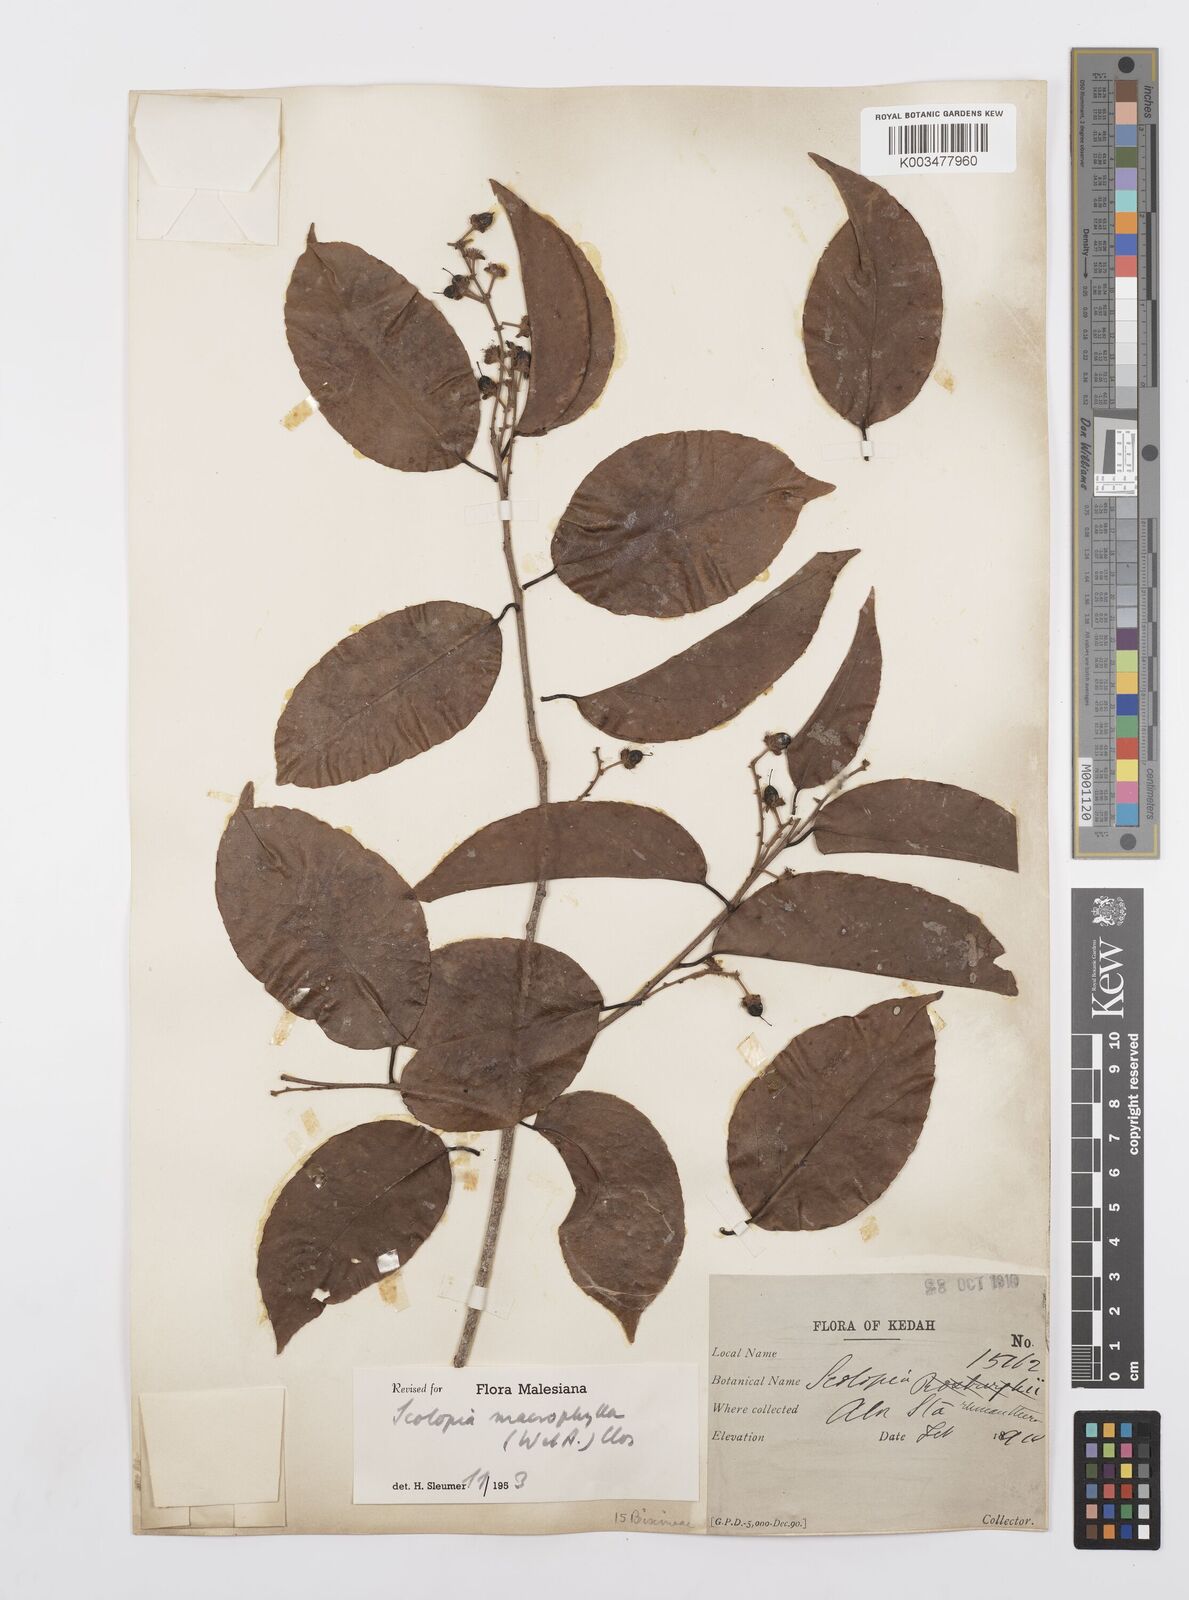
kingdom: Plantae
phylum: Tracheophyta
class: Magnoliopsida
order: Malpighiales
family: Salicaceae
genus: Scolopia
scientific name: Scolopia macrophylla
